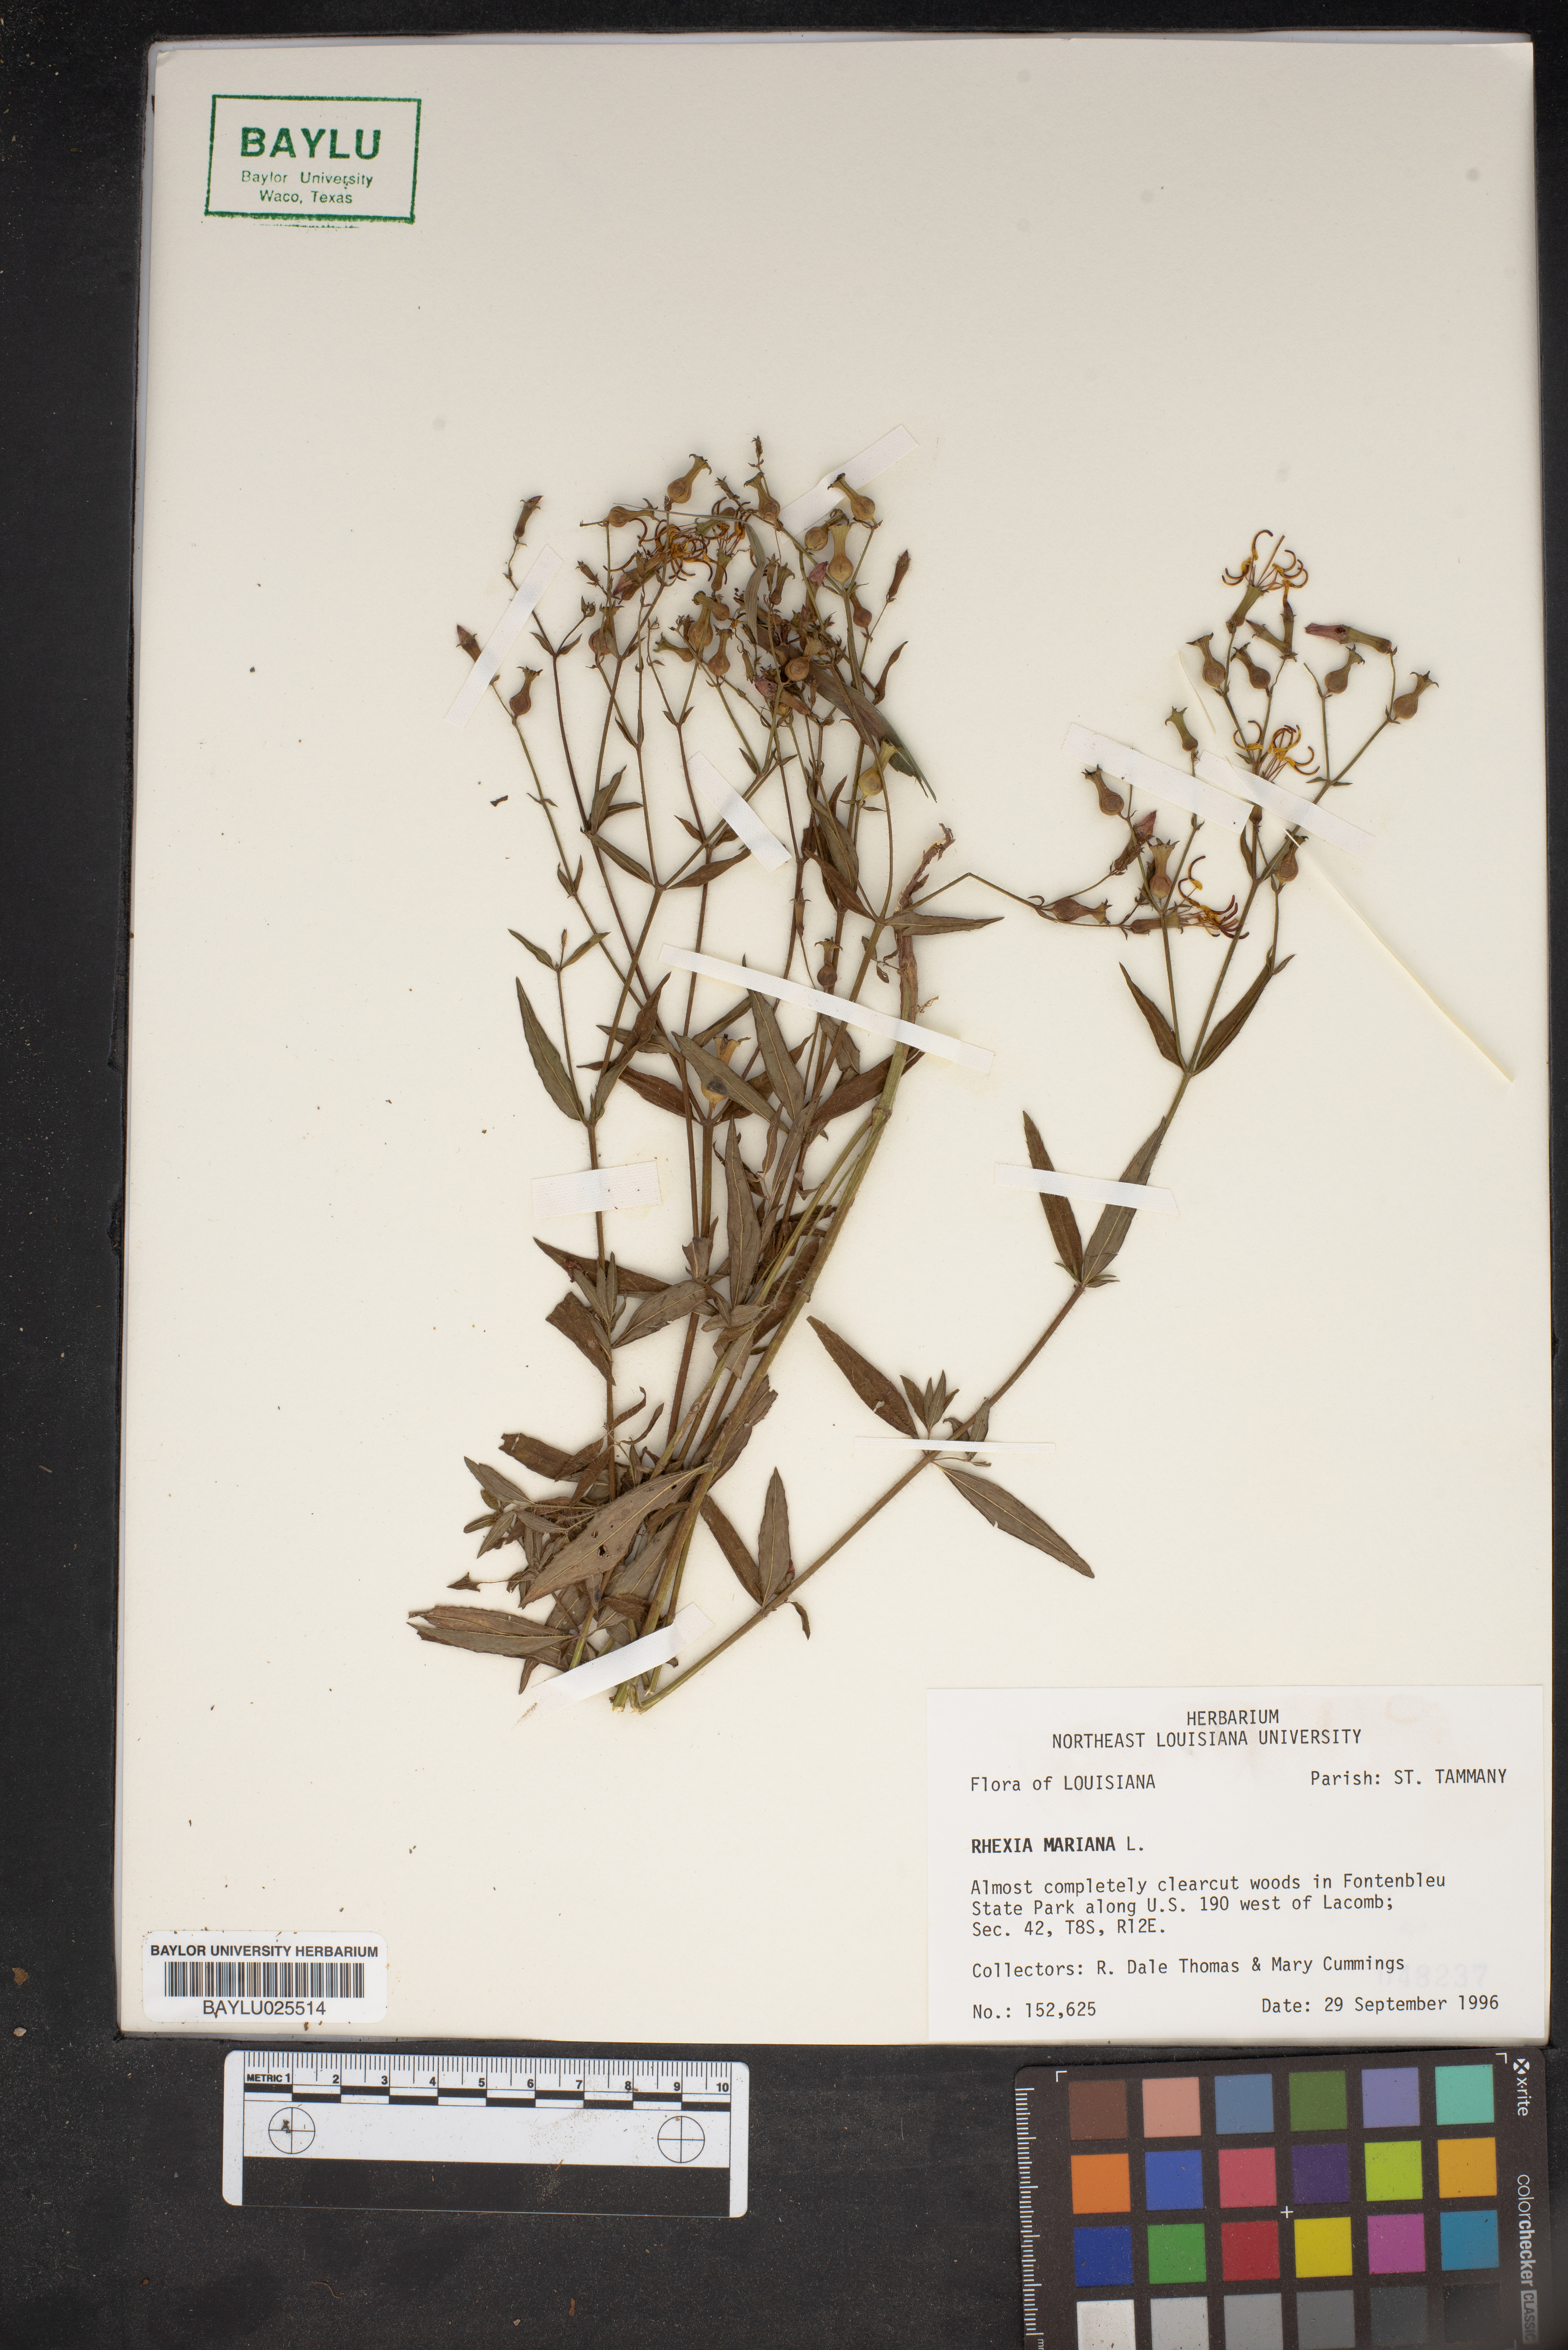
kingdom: Plantae
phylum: Tracheophyta
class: Magnoliopsida
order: Myrtales
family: Melastomataceae
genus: Rhexia
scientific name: Rhexia mariana
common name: Dull meadow-pitcher
